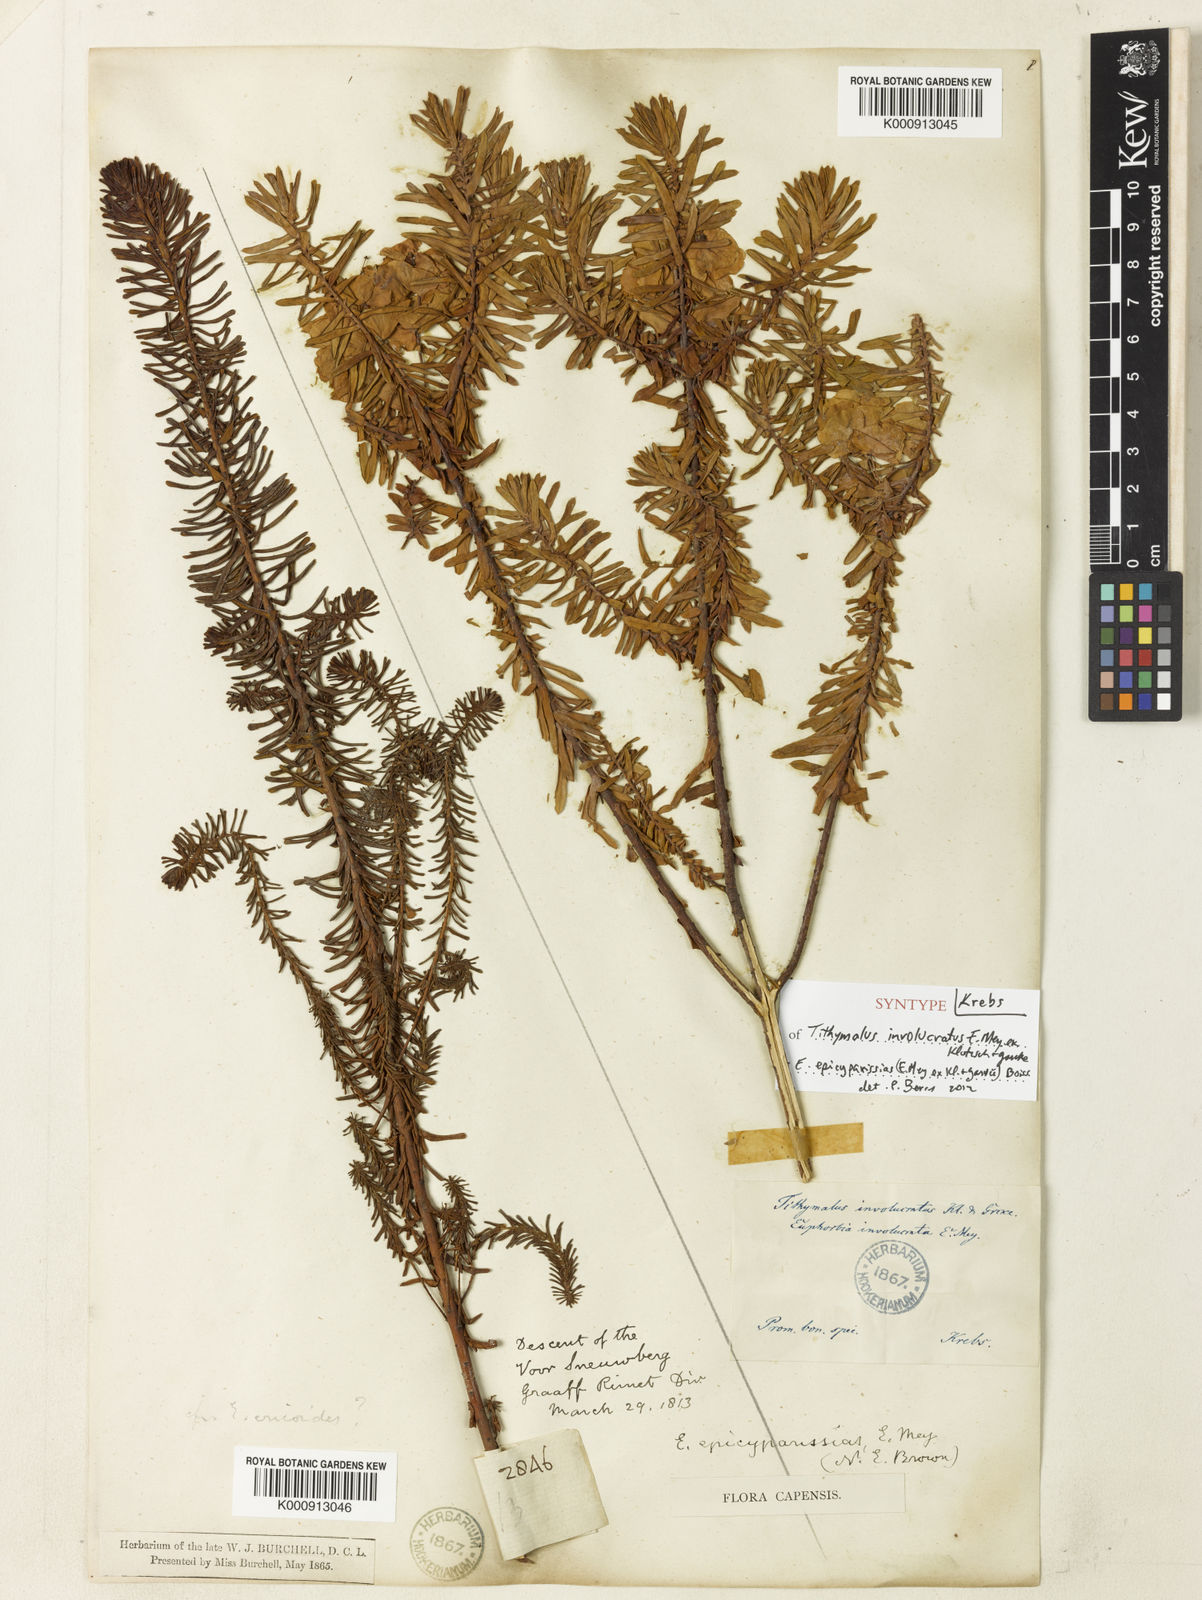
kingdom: Plantae
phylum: Tracheophyta
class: Magnoliopsida
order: Malpighiales
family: Euphorbiaceae
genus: Euphorbia
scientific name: Euphorbia natalensis
